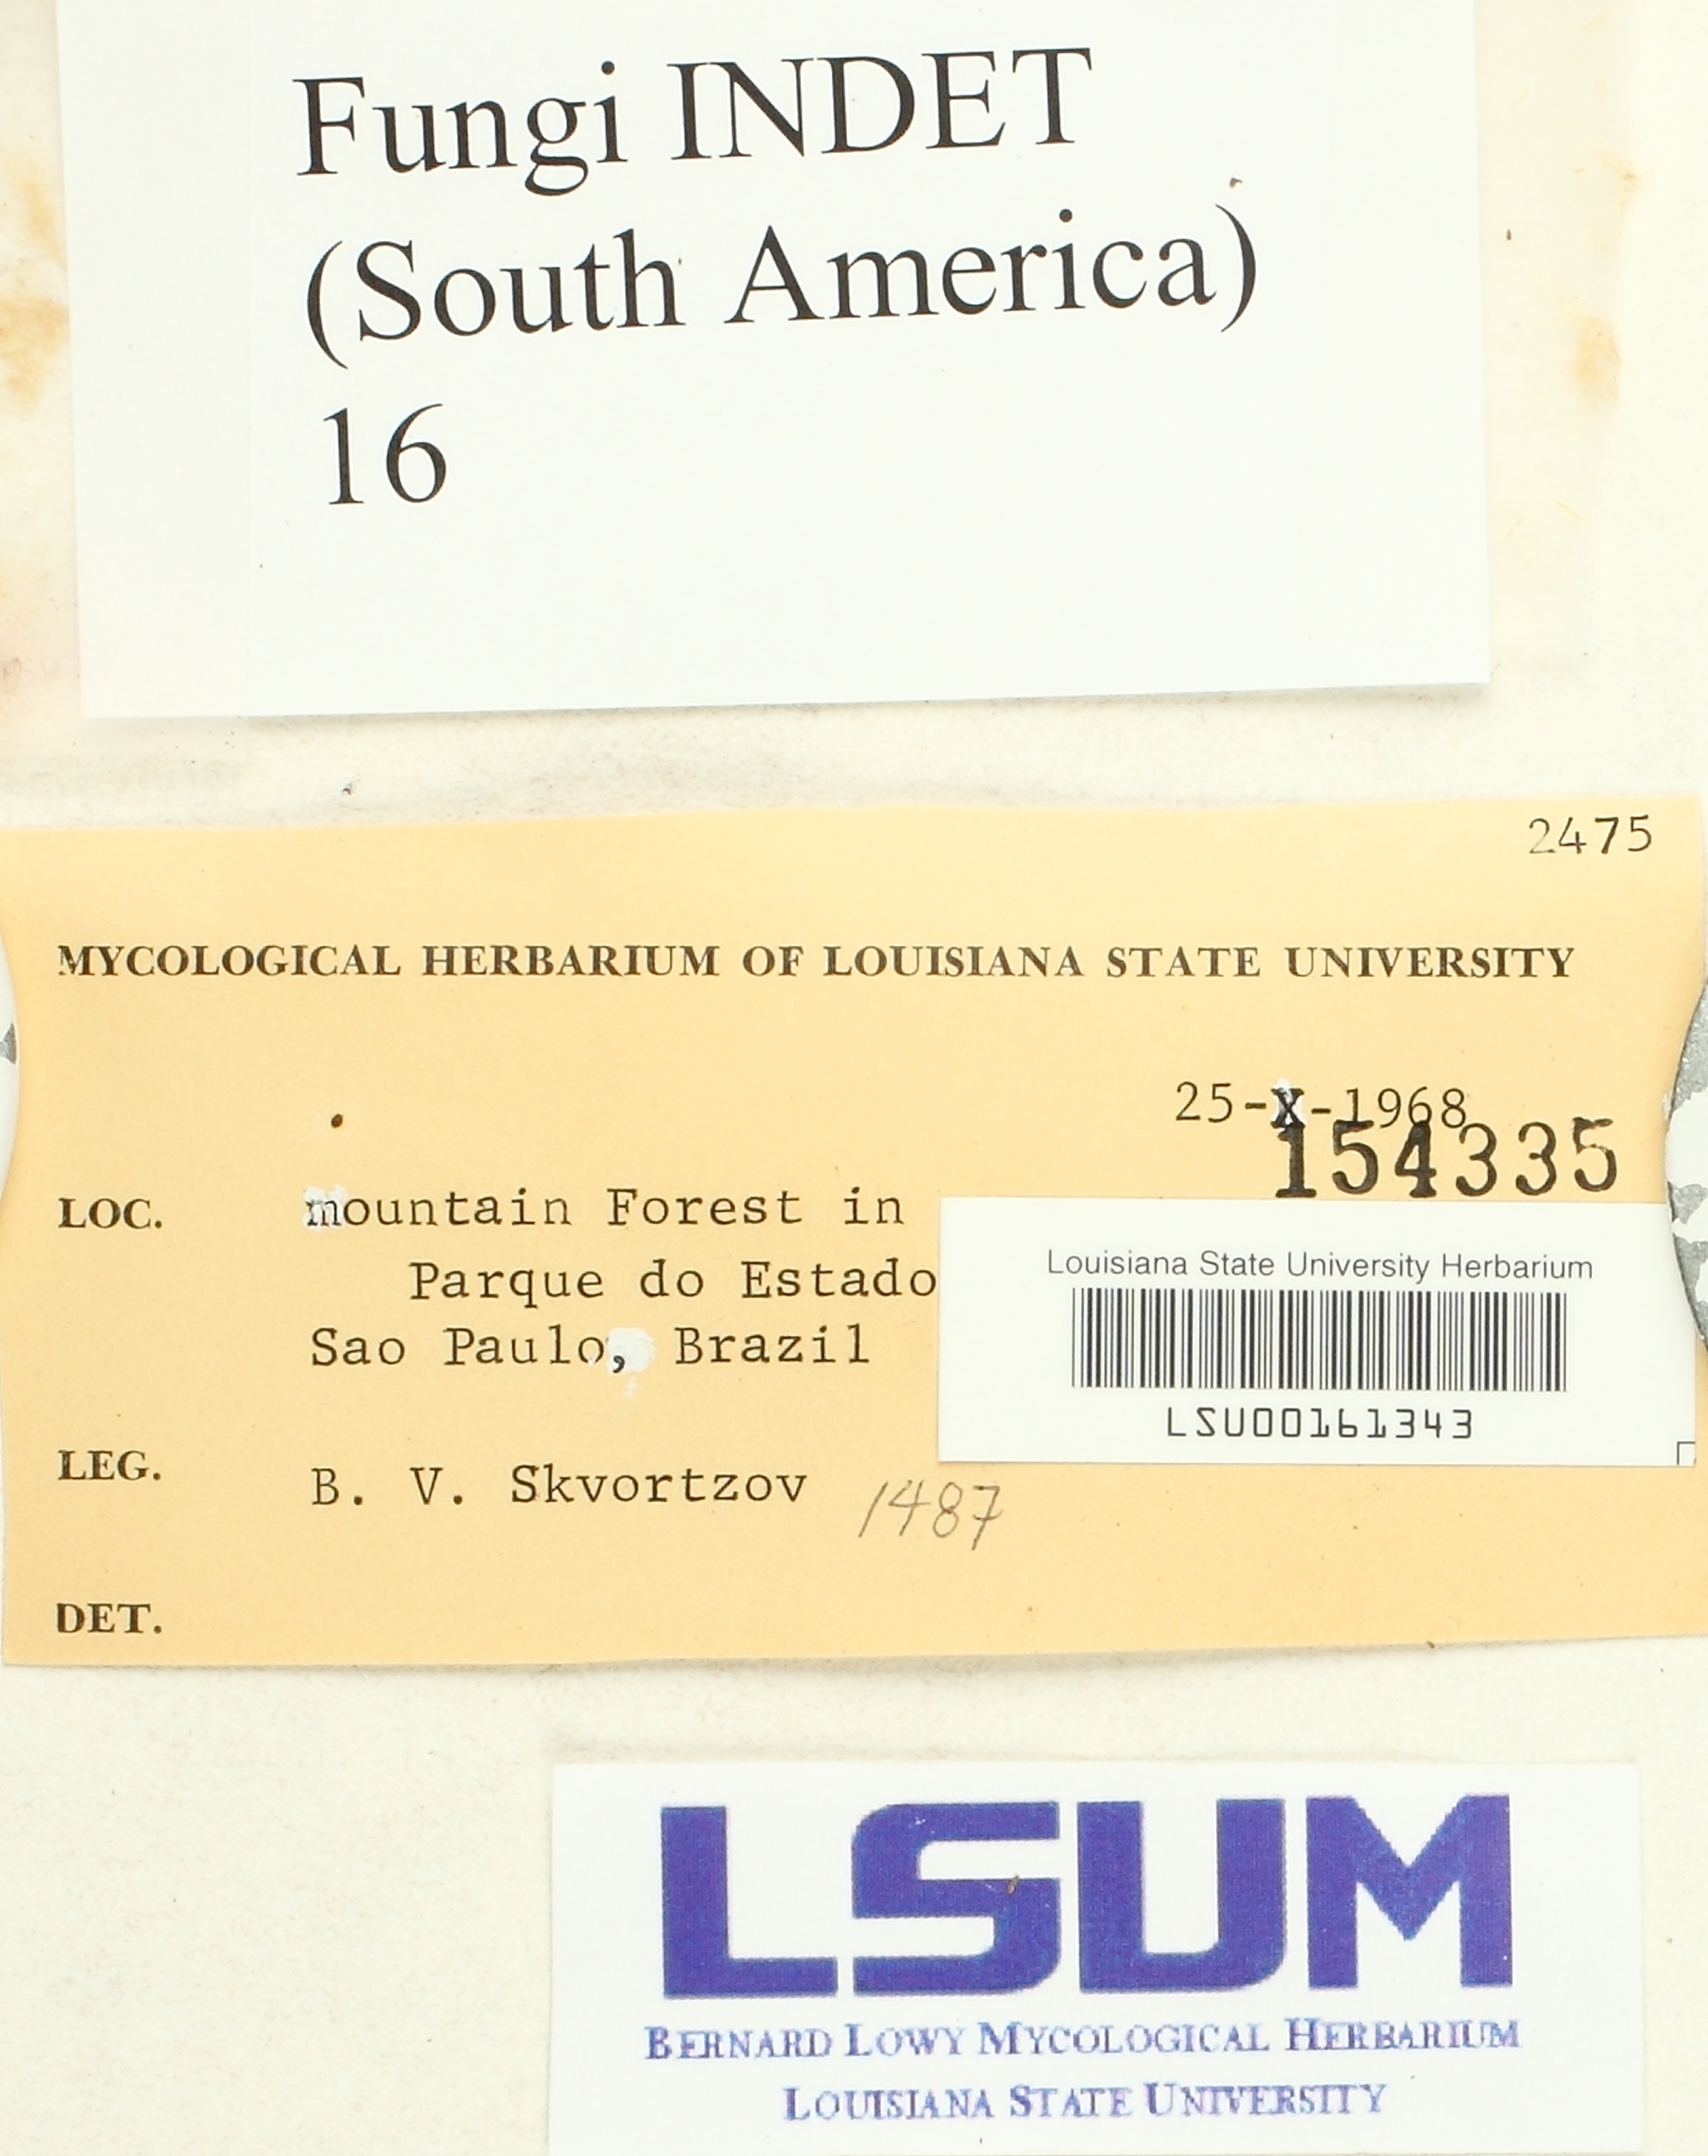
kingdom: Fungi
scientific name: Fungi
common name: Fungi
